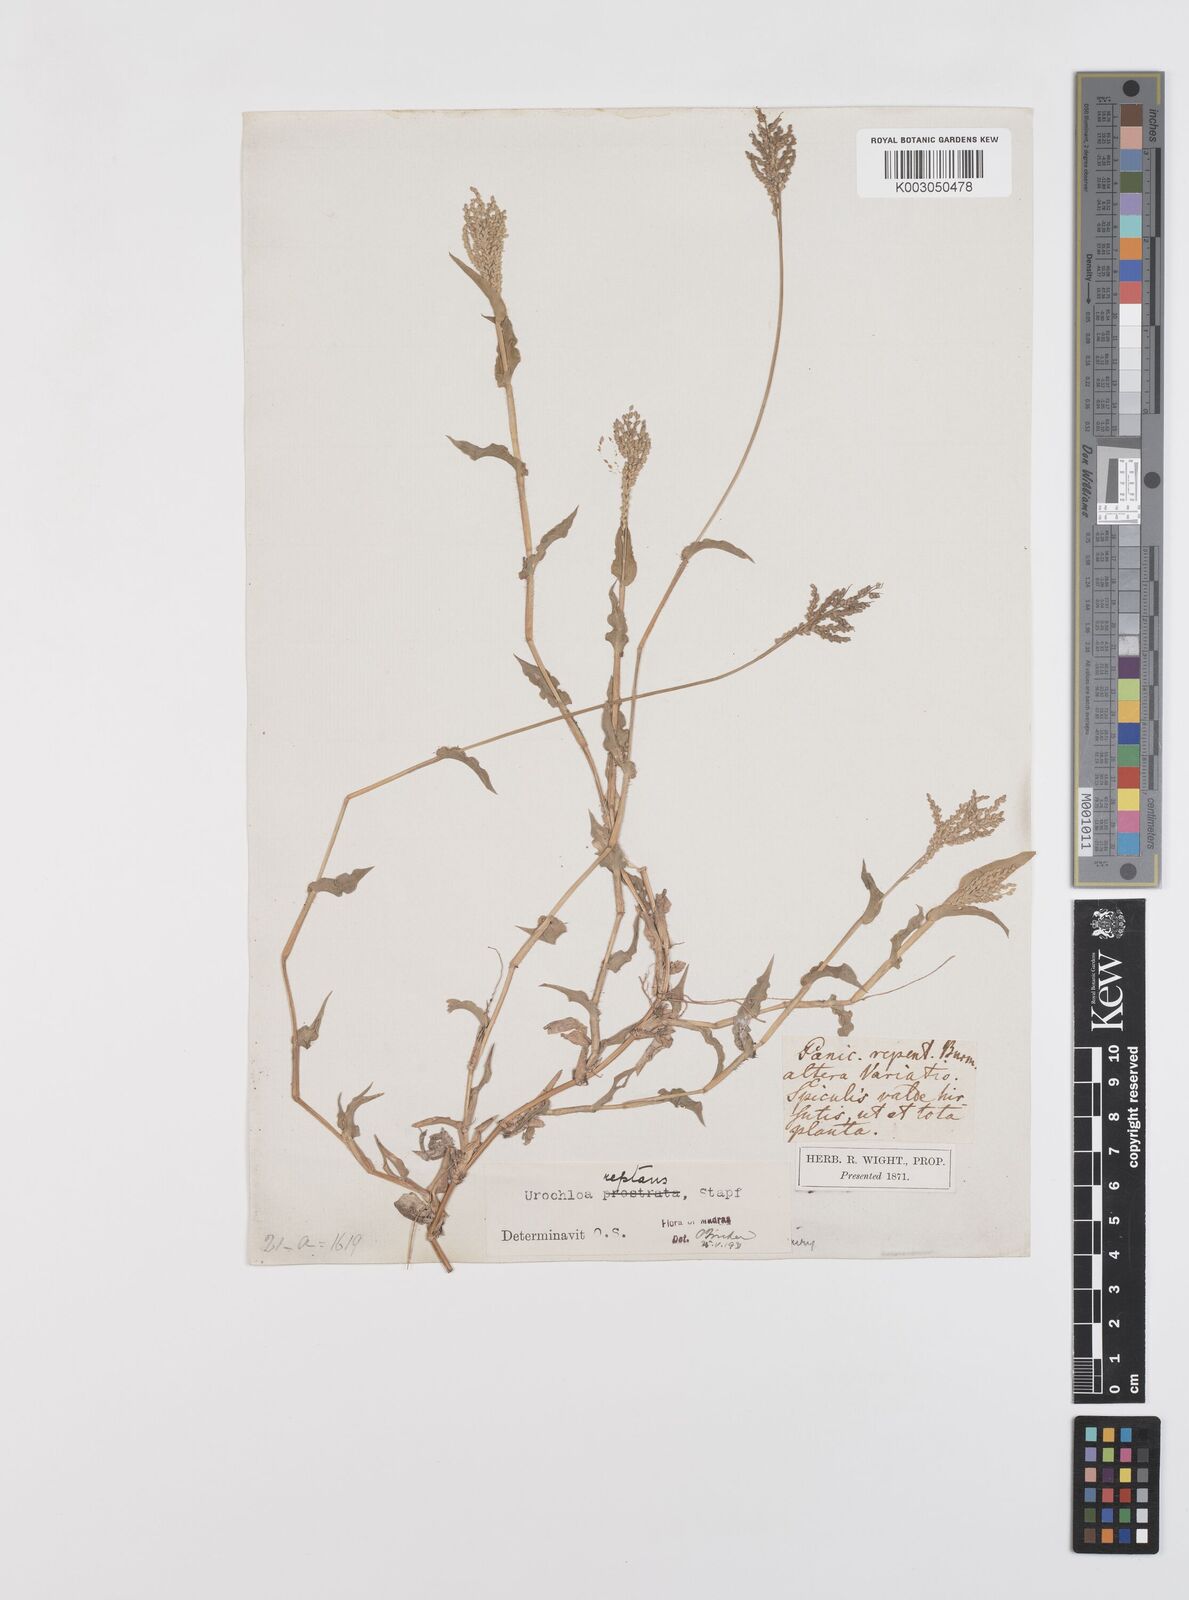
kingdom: Plantae
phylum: Tracheophyta
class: Liliopsida
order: Poales
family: Poaceae
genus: Urochloa
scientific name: Urochloa reptans
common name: Sprawling signalgrass
